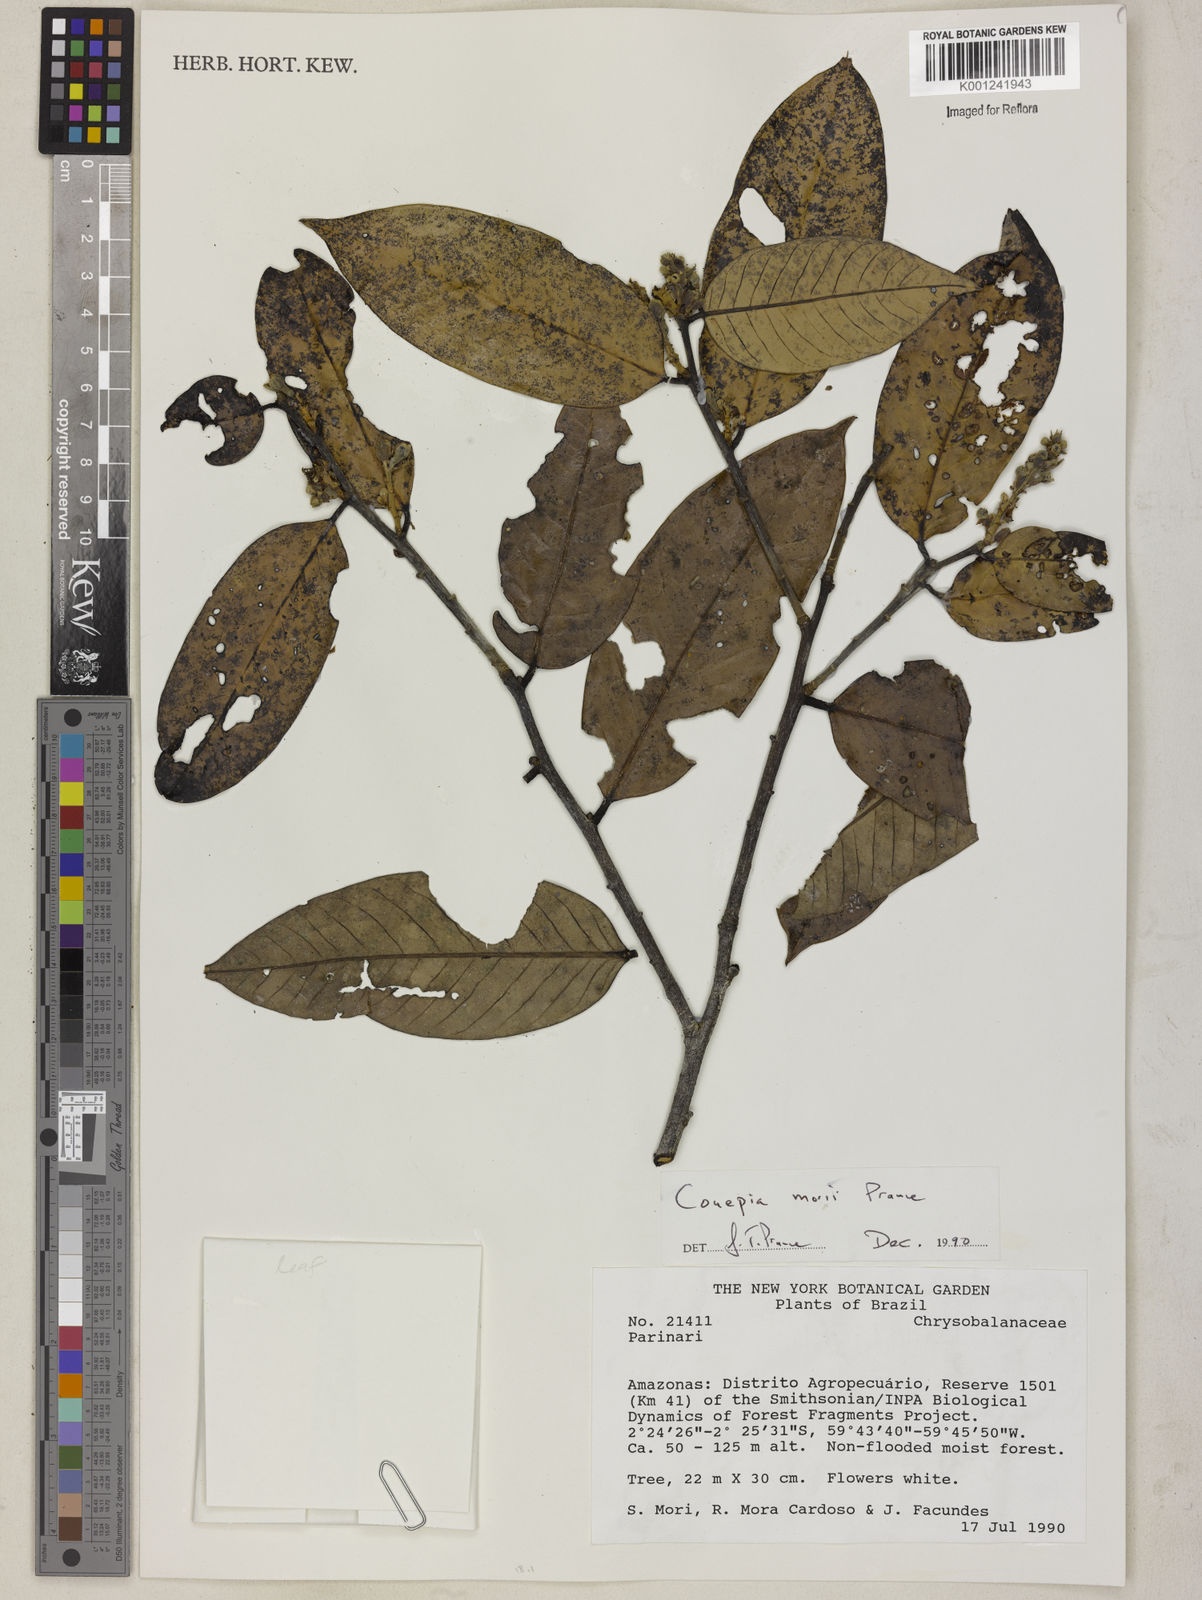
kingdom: Plantae
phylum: Tracheophyta
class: Magnoliopsida
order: Malpighiales
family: Chrysobalanaceae
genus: Couepia
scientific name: Couepia morii
